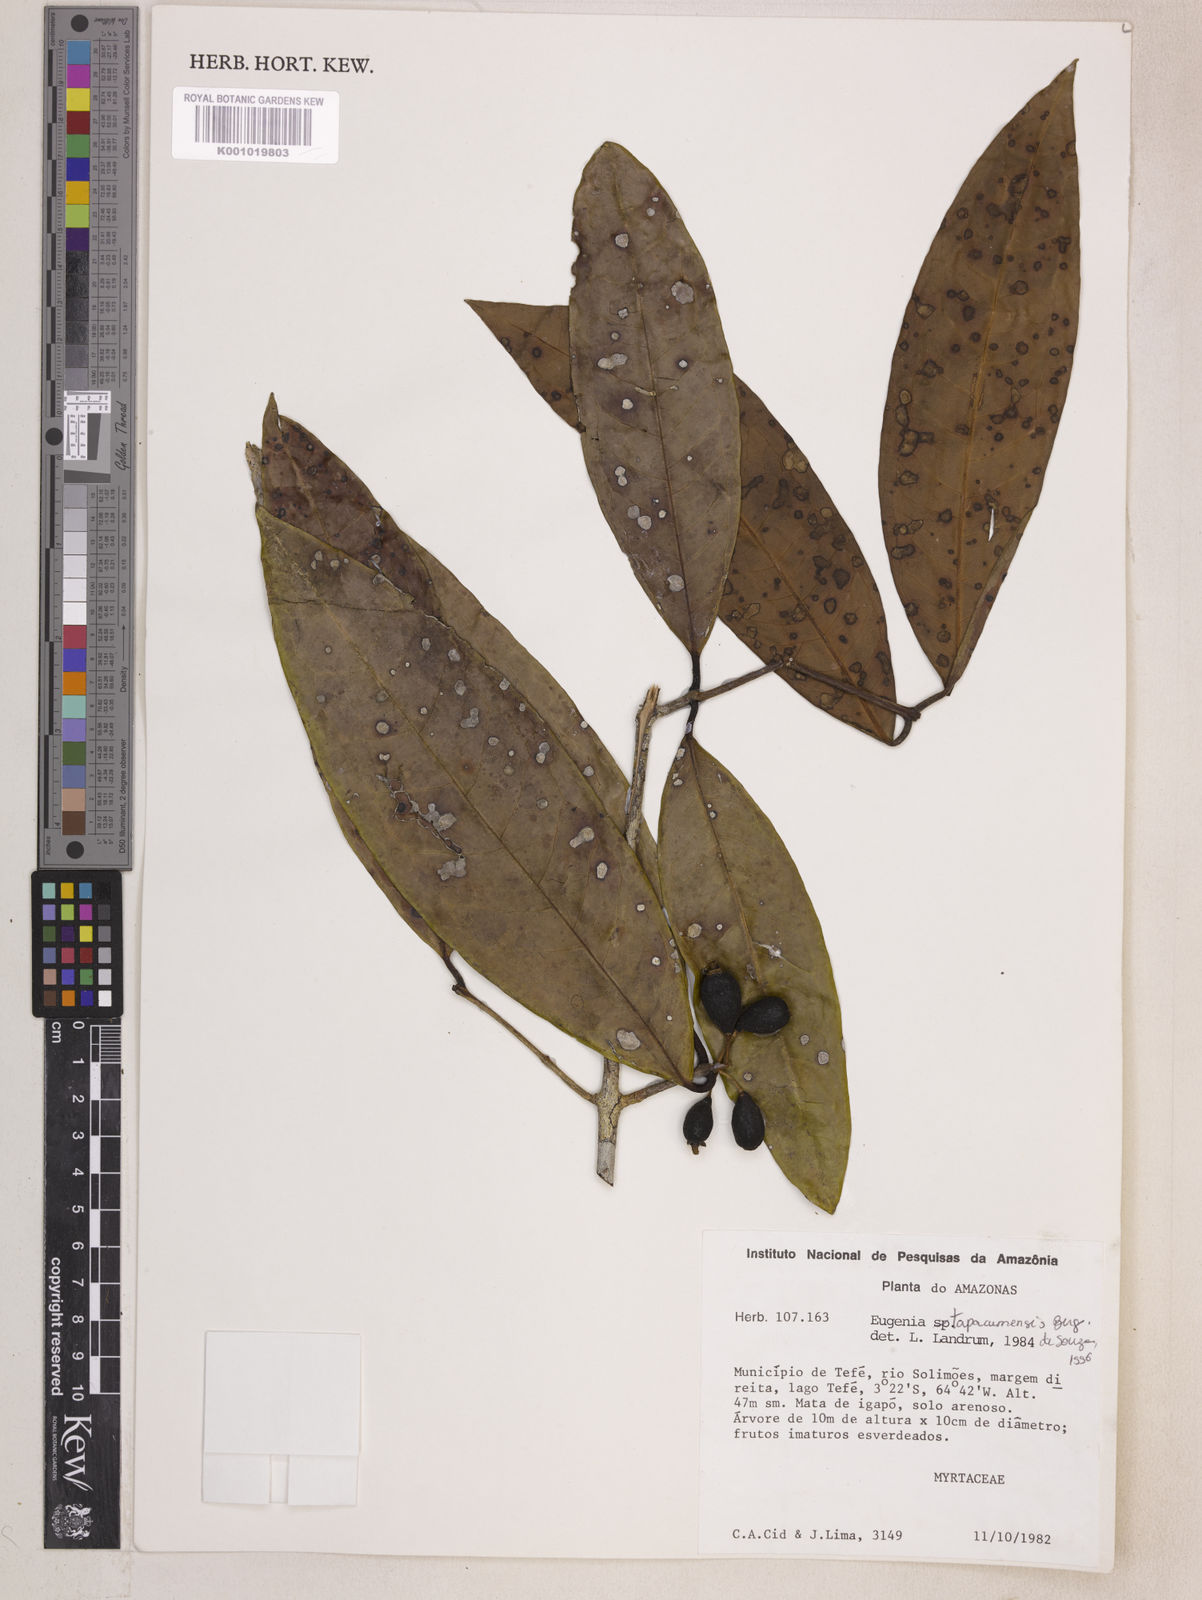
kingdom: Plantae
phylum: Tracheophyta
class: Magnoliopsida
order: Myrtales
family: Myrtaceae
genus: Eugenia
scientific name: Eugenia stictopetala
